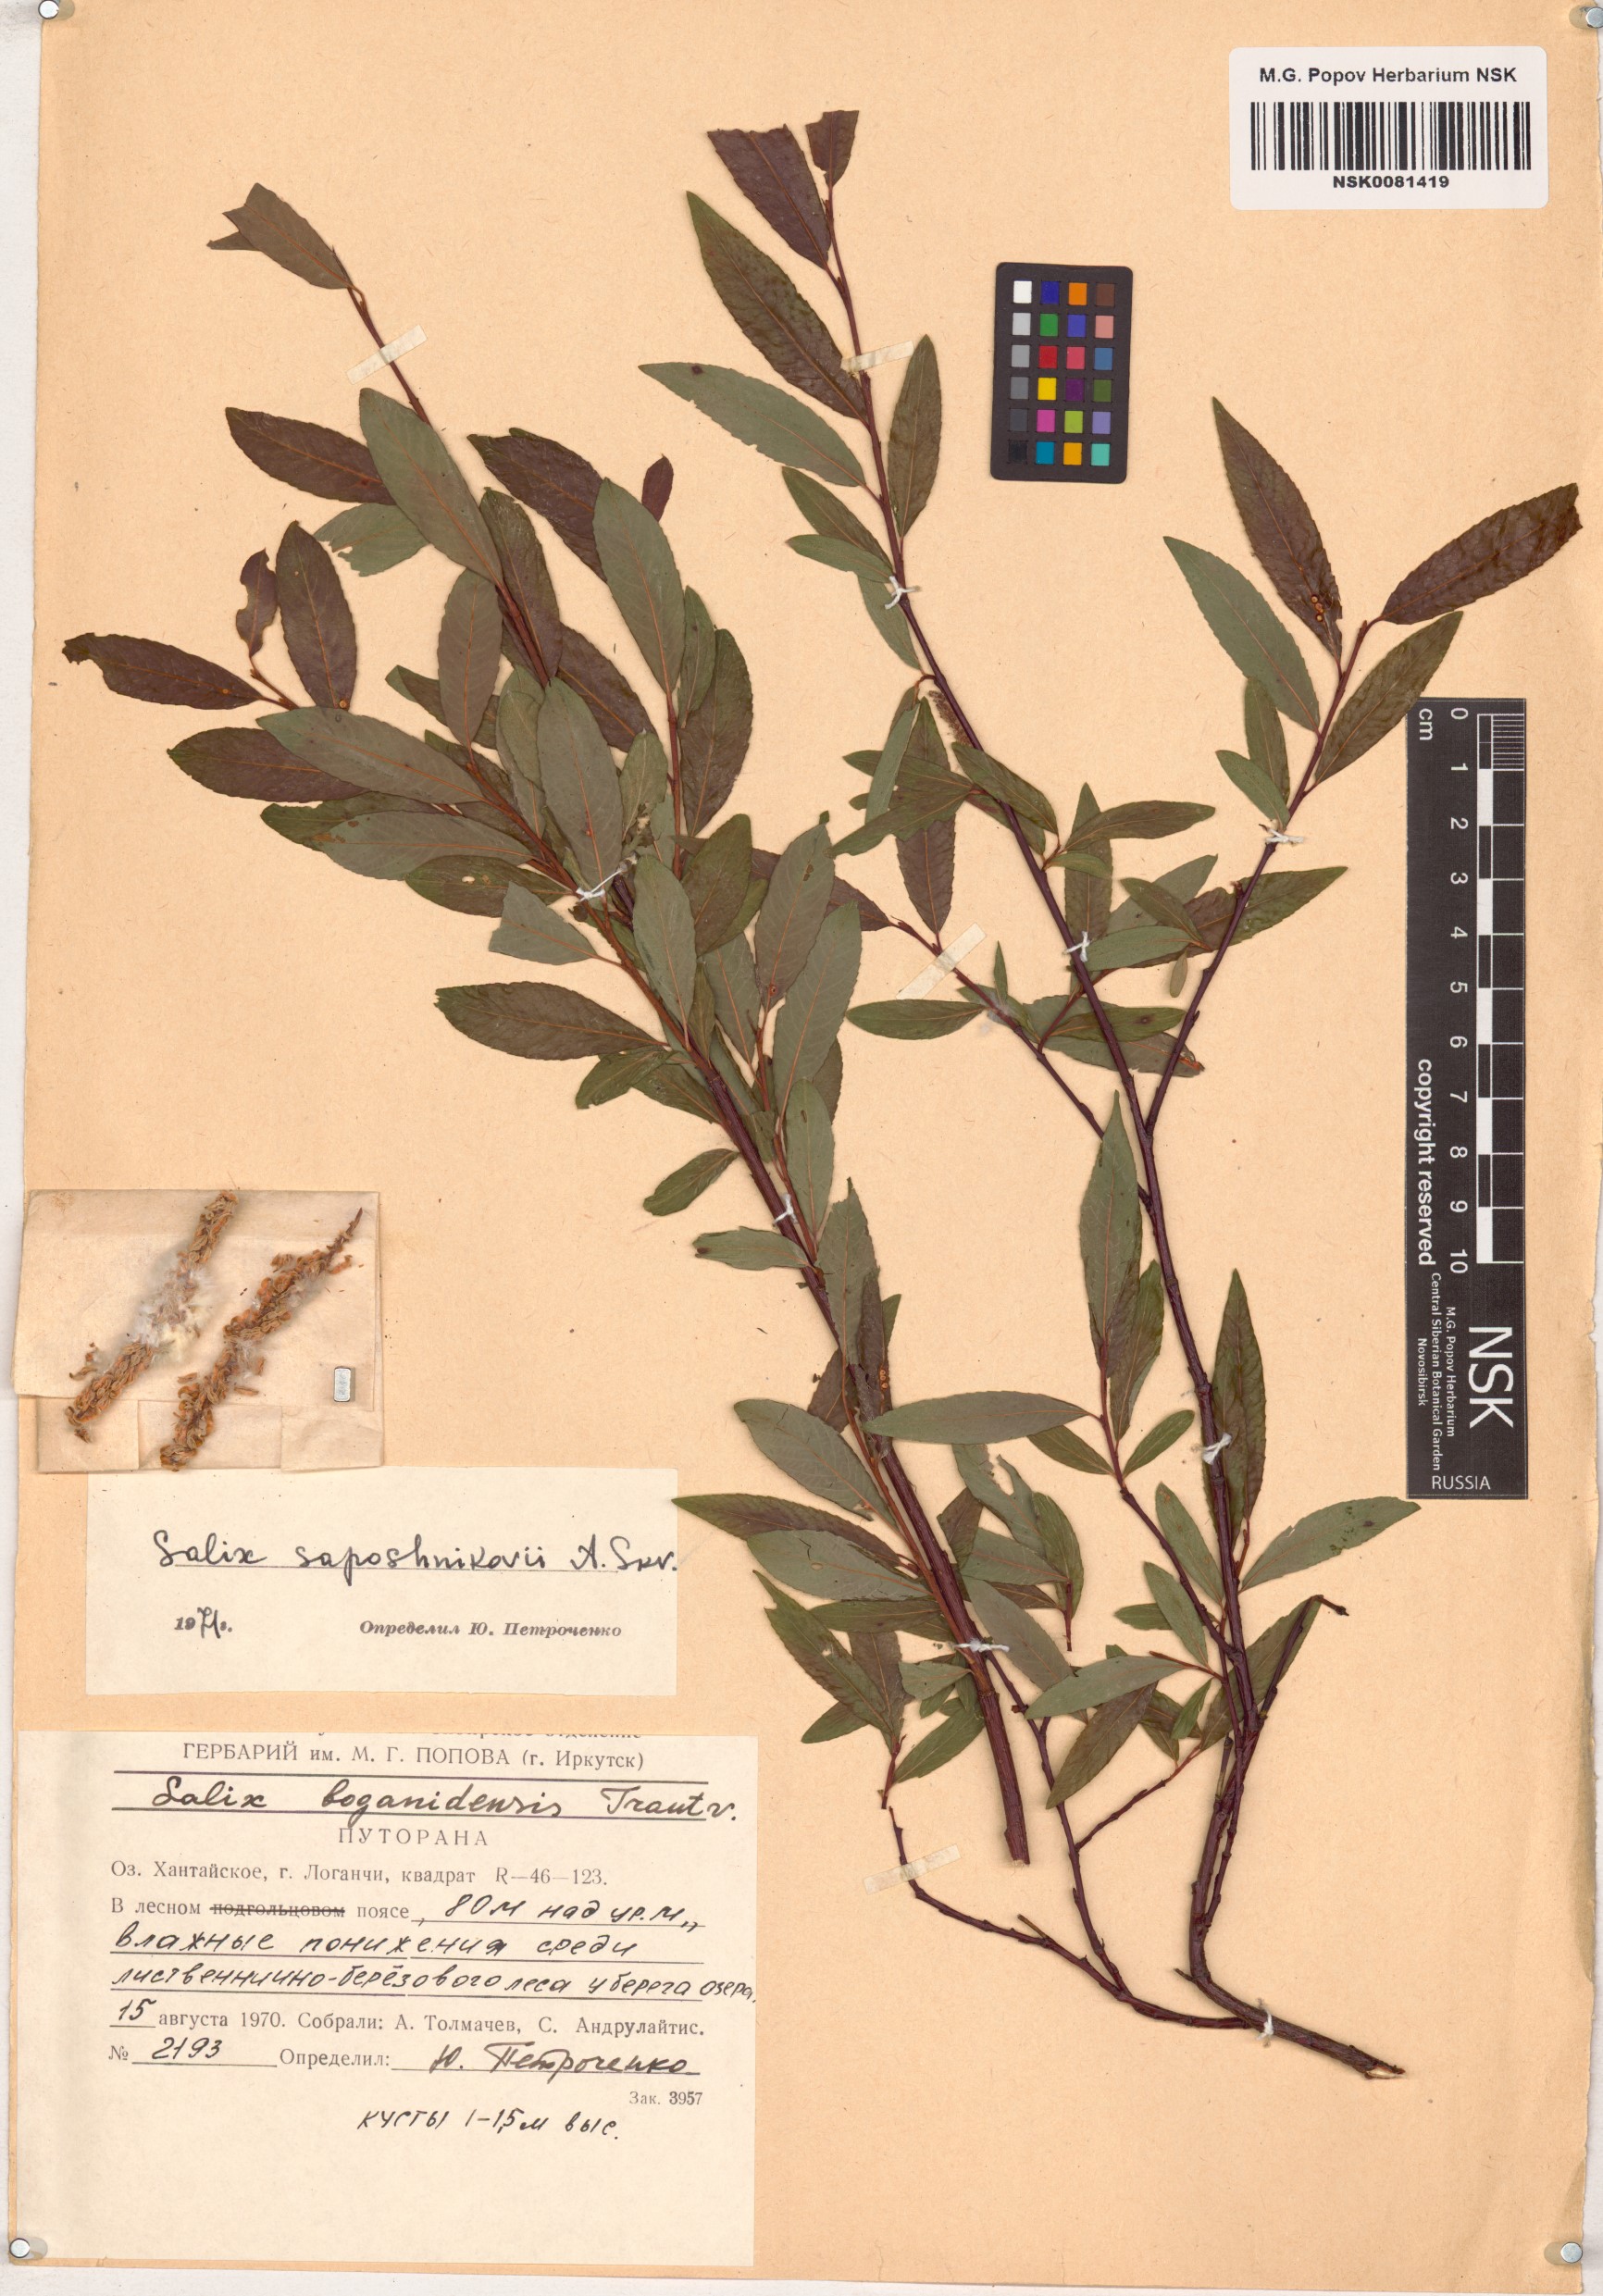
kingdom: Plantae
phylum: Tracheophyta
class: Magnoliopsida
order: Malpighiales
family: Salicaceae
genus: Salix
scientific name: Salix saposhnikovii
